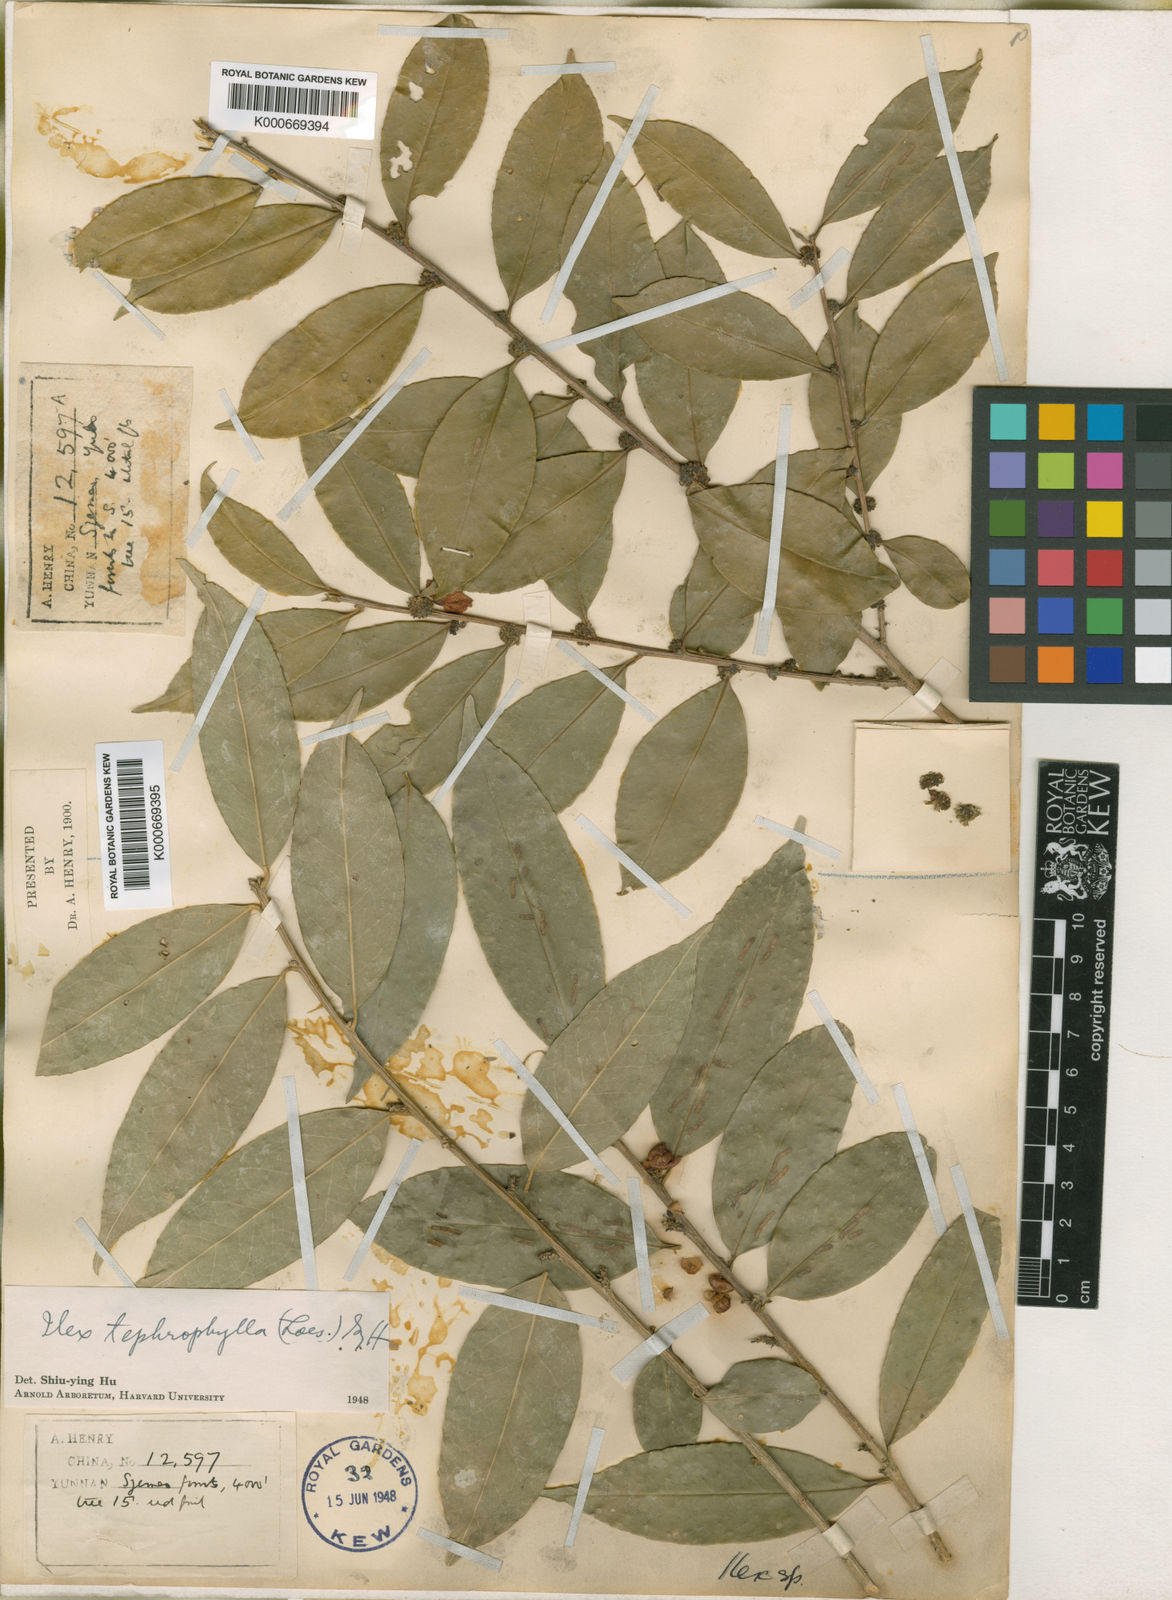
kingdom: Plantae
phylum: Tracheophyta
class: Magnoliopsida
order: Aquifoliales
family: Aquifoliaceae
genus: Ilex
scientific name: Ilex tetramera
